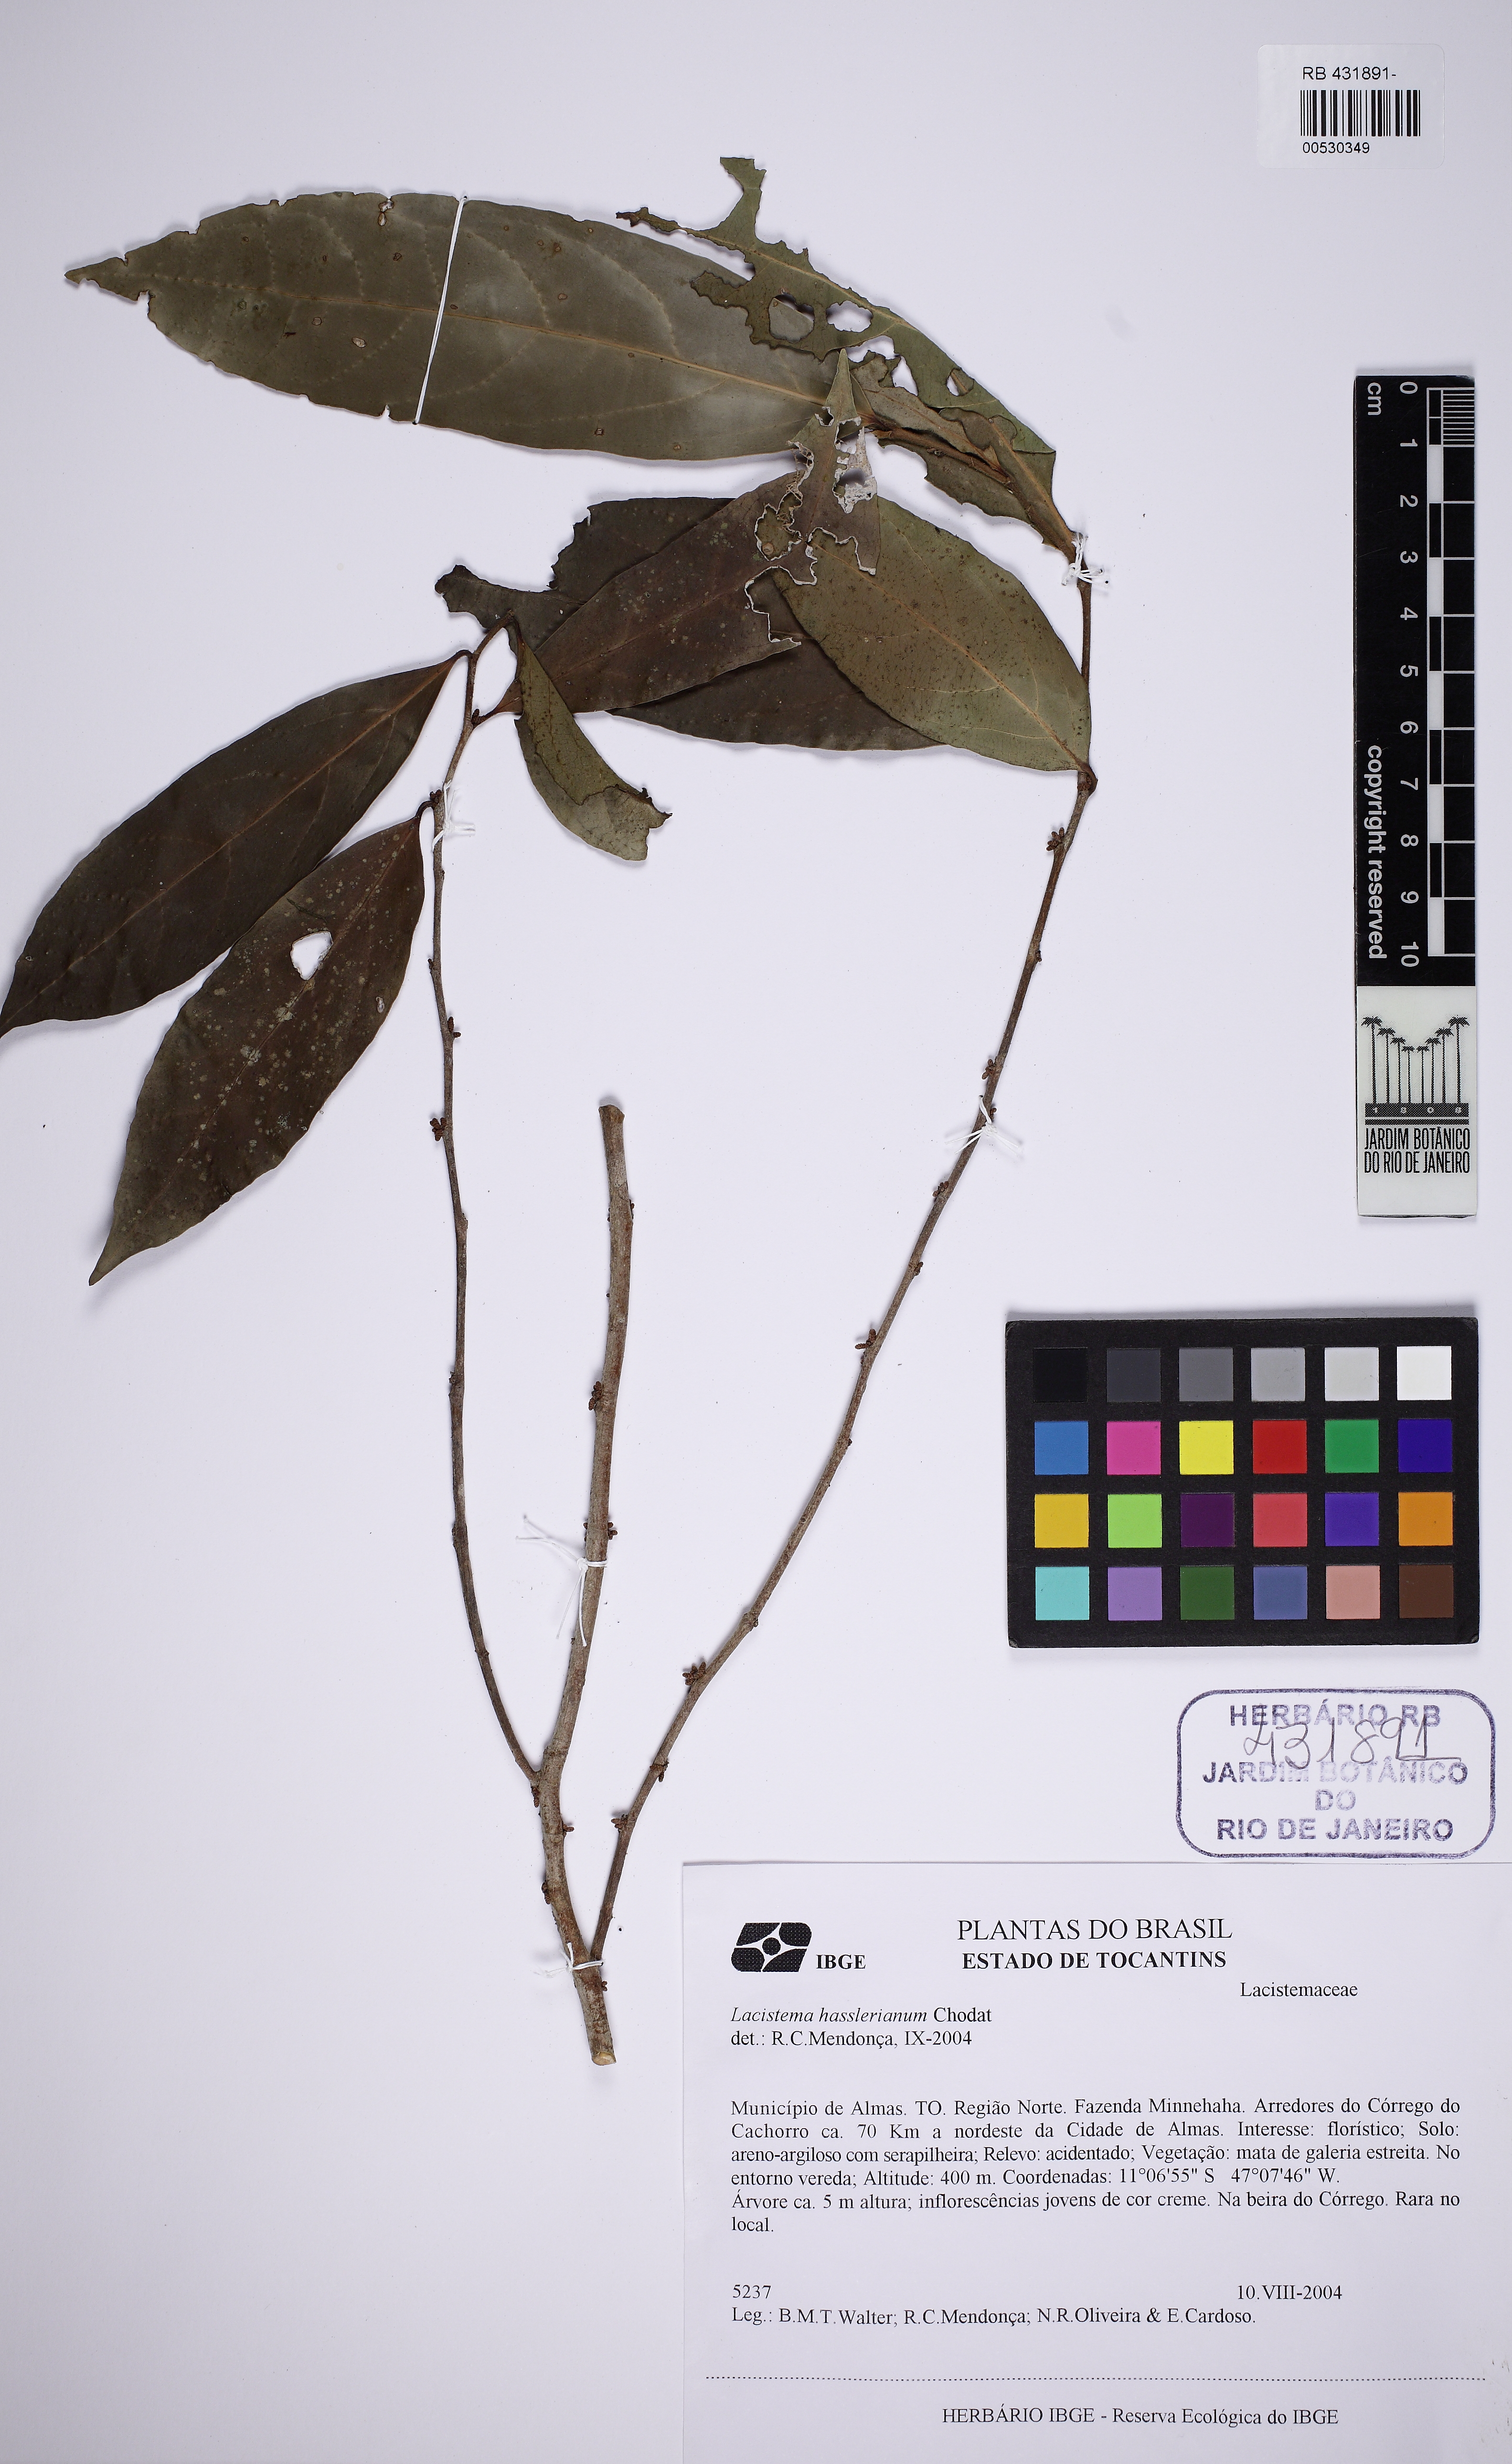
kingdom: Plantae
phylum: Tracheophyta
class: Magnoliopsida
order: Malpighiales
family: Lacistemataceae
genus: Lacistema
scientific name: Lacistema hasslerianum
